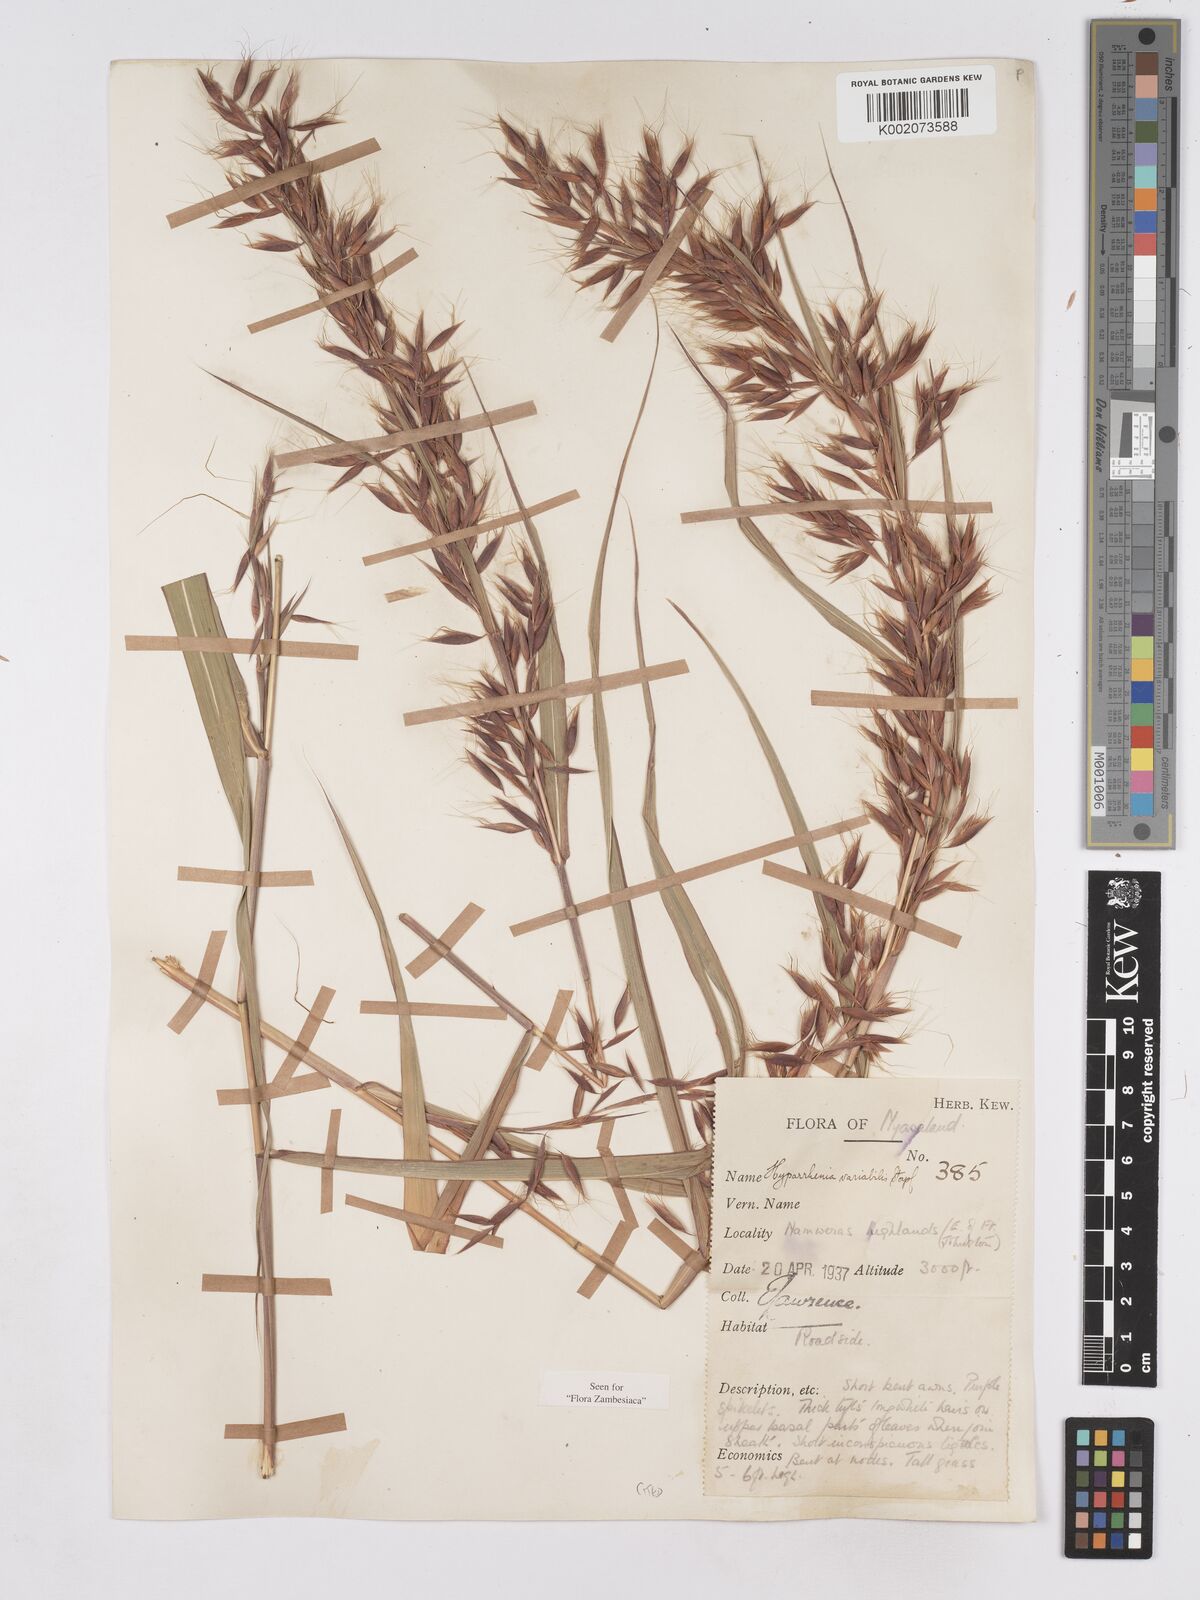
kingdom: Plantae
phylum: Tracheophyta
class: Liliopsida
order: Poales
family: Poaceae
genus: Hyparrhenia
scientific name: Hyparrhenia variabilis
